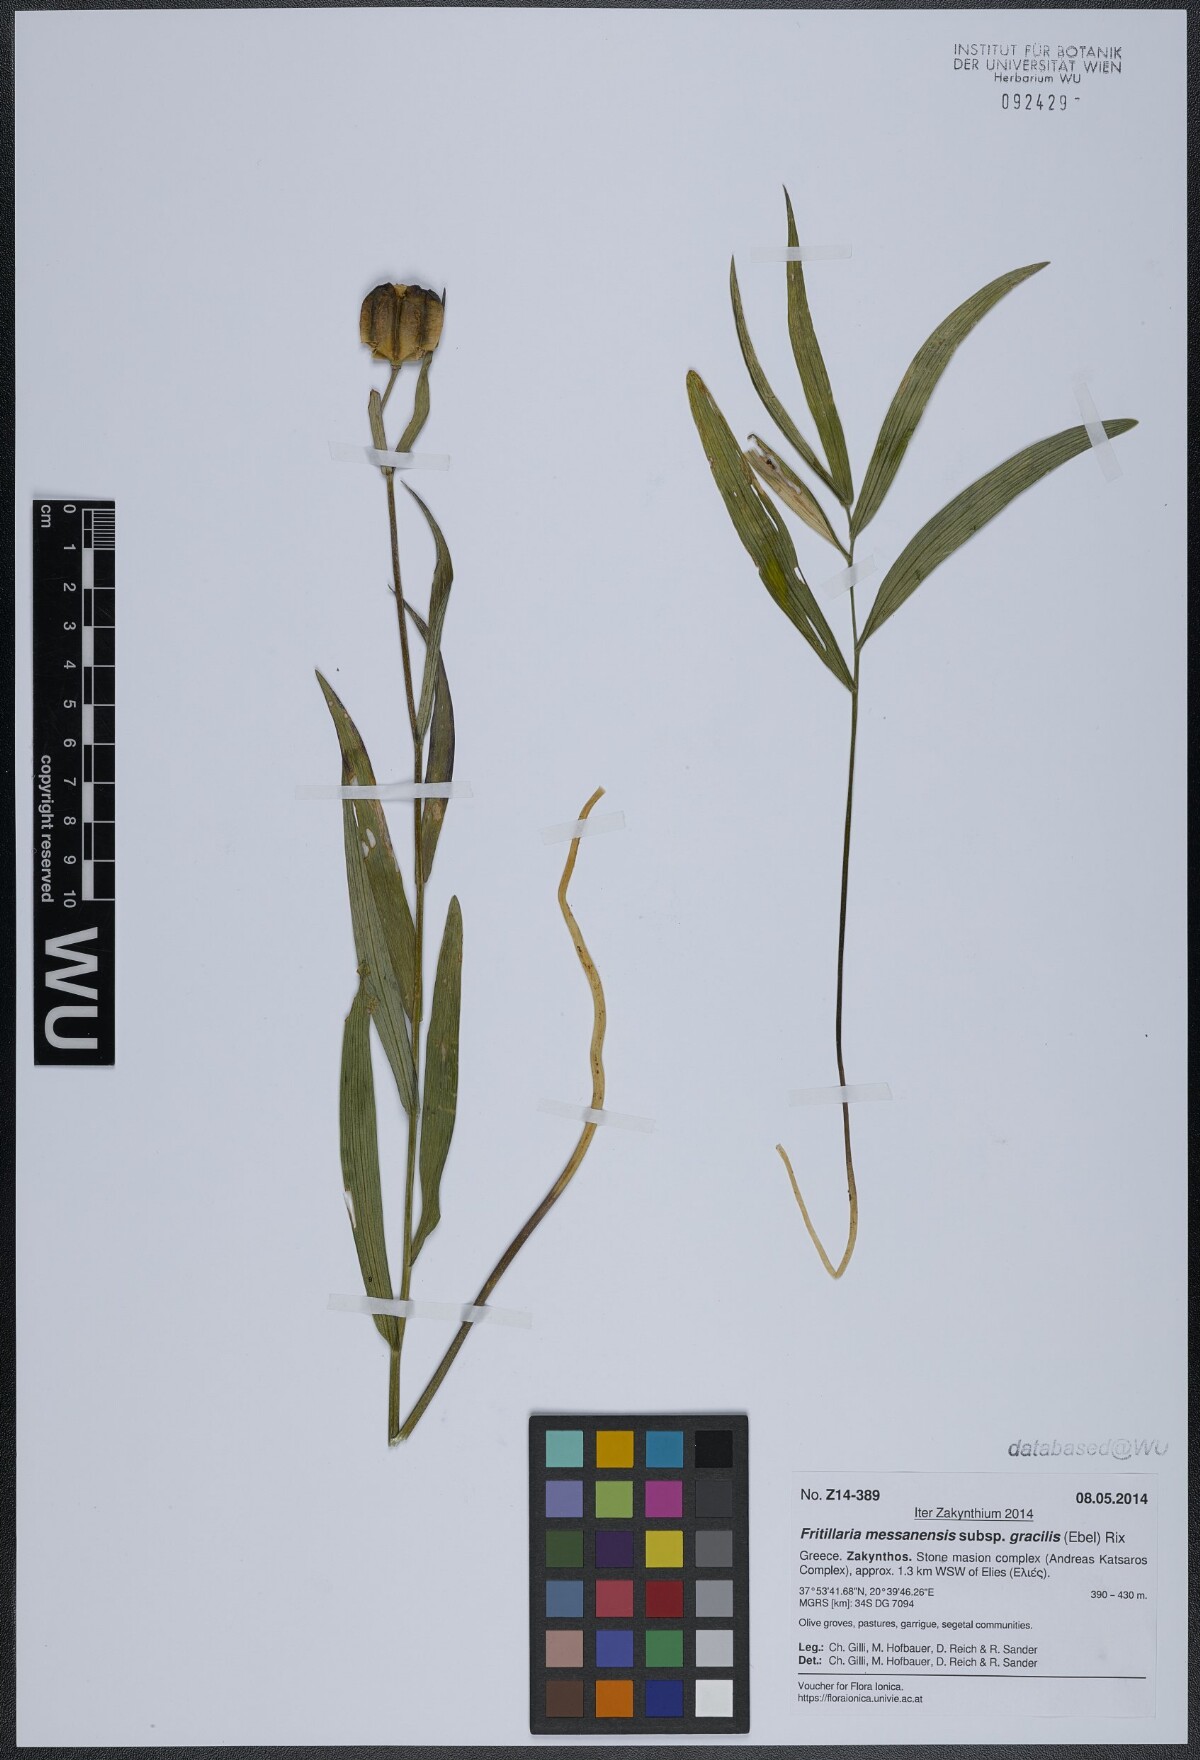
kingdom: Plantae
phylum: Tracheophyta
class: Liliopsida
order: Liliales
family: Liliaceae
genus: Fritillaria
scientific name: Fritillaria messanensis
